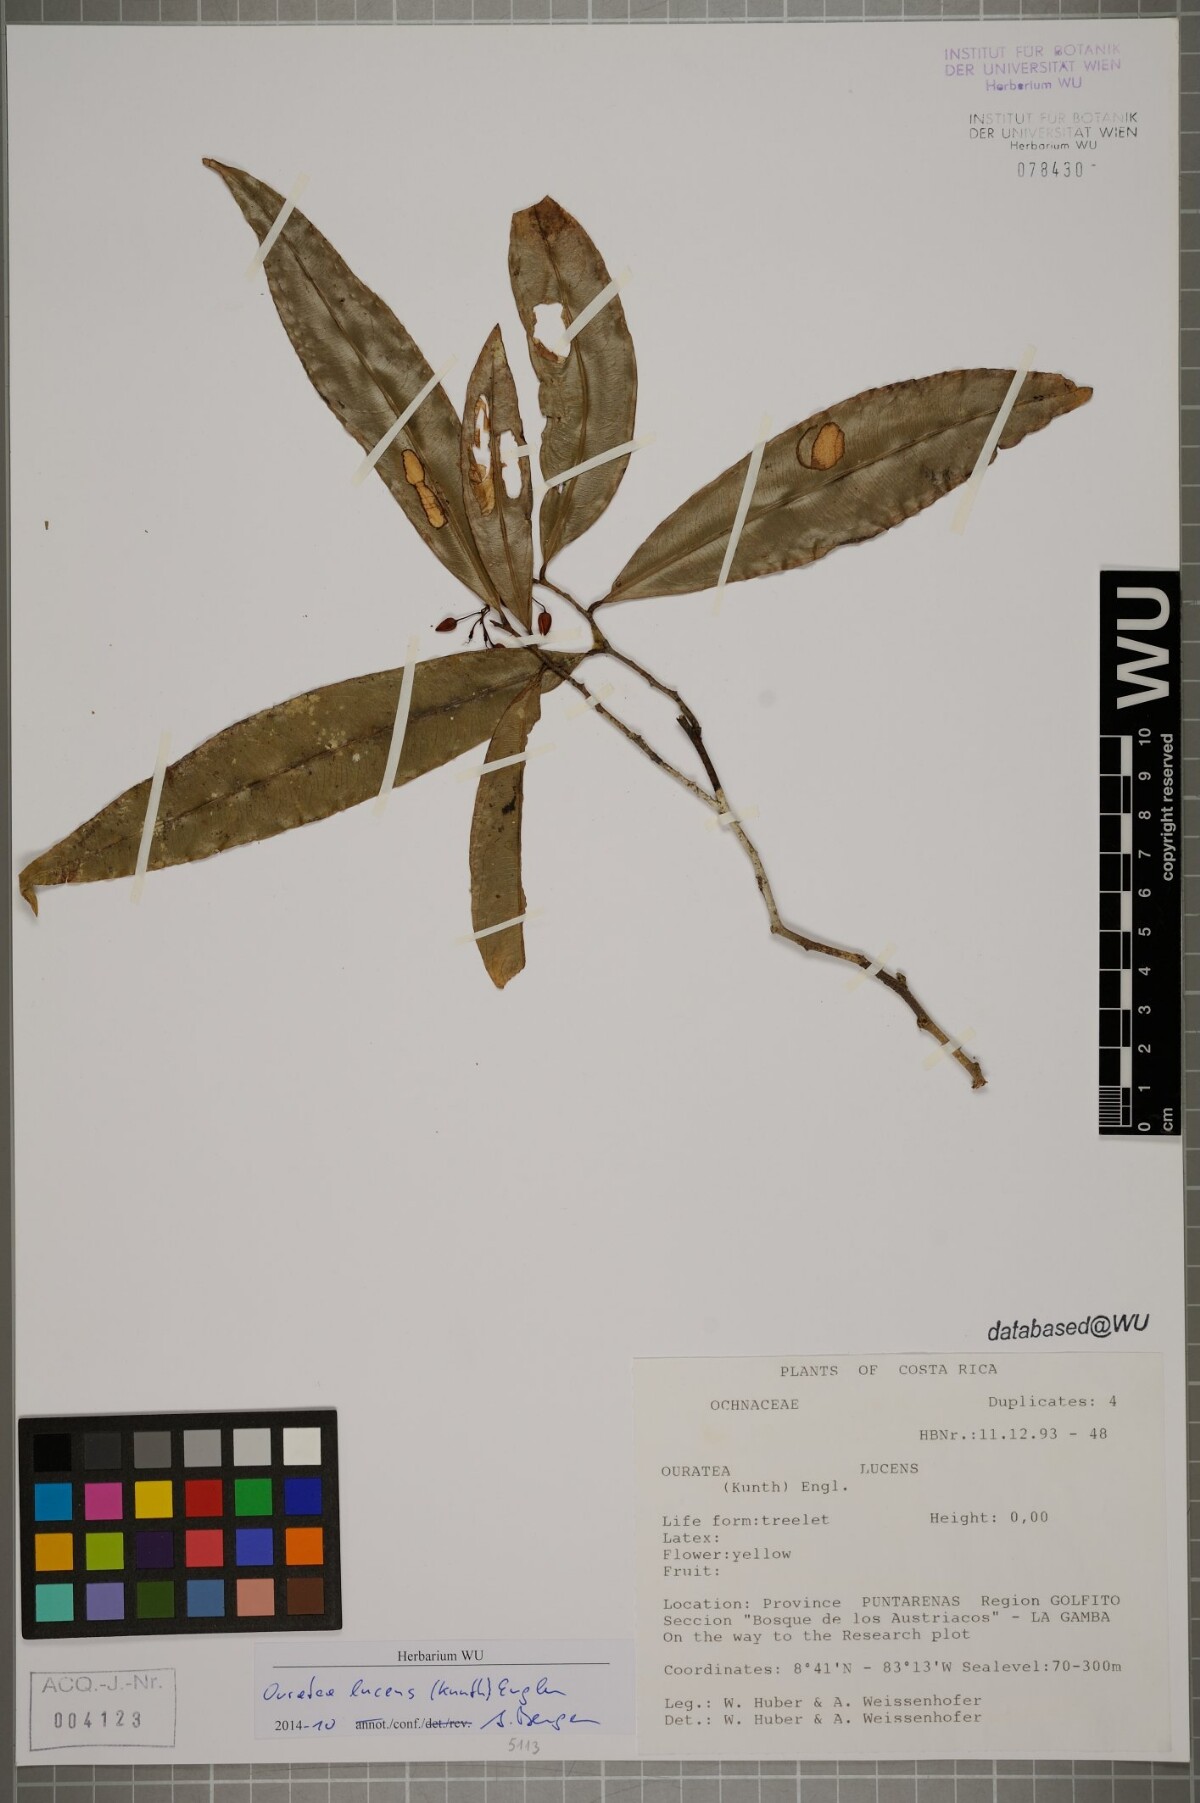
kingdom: Plantae
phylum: Tracheophyta
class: Magnoliopsida
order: Malpighiales
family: Ochnaceae
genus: Ouratea
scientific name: Ouratea lucens
